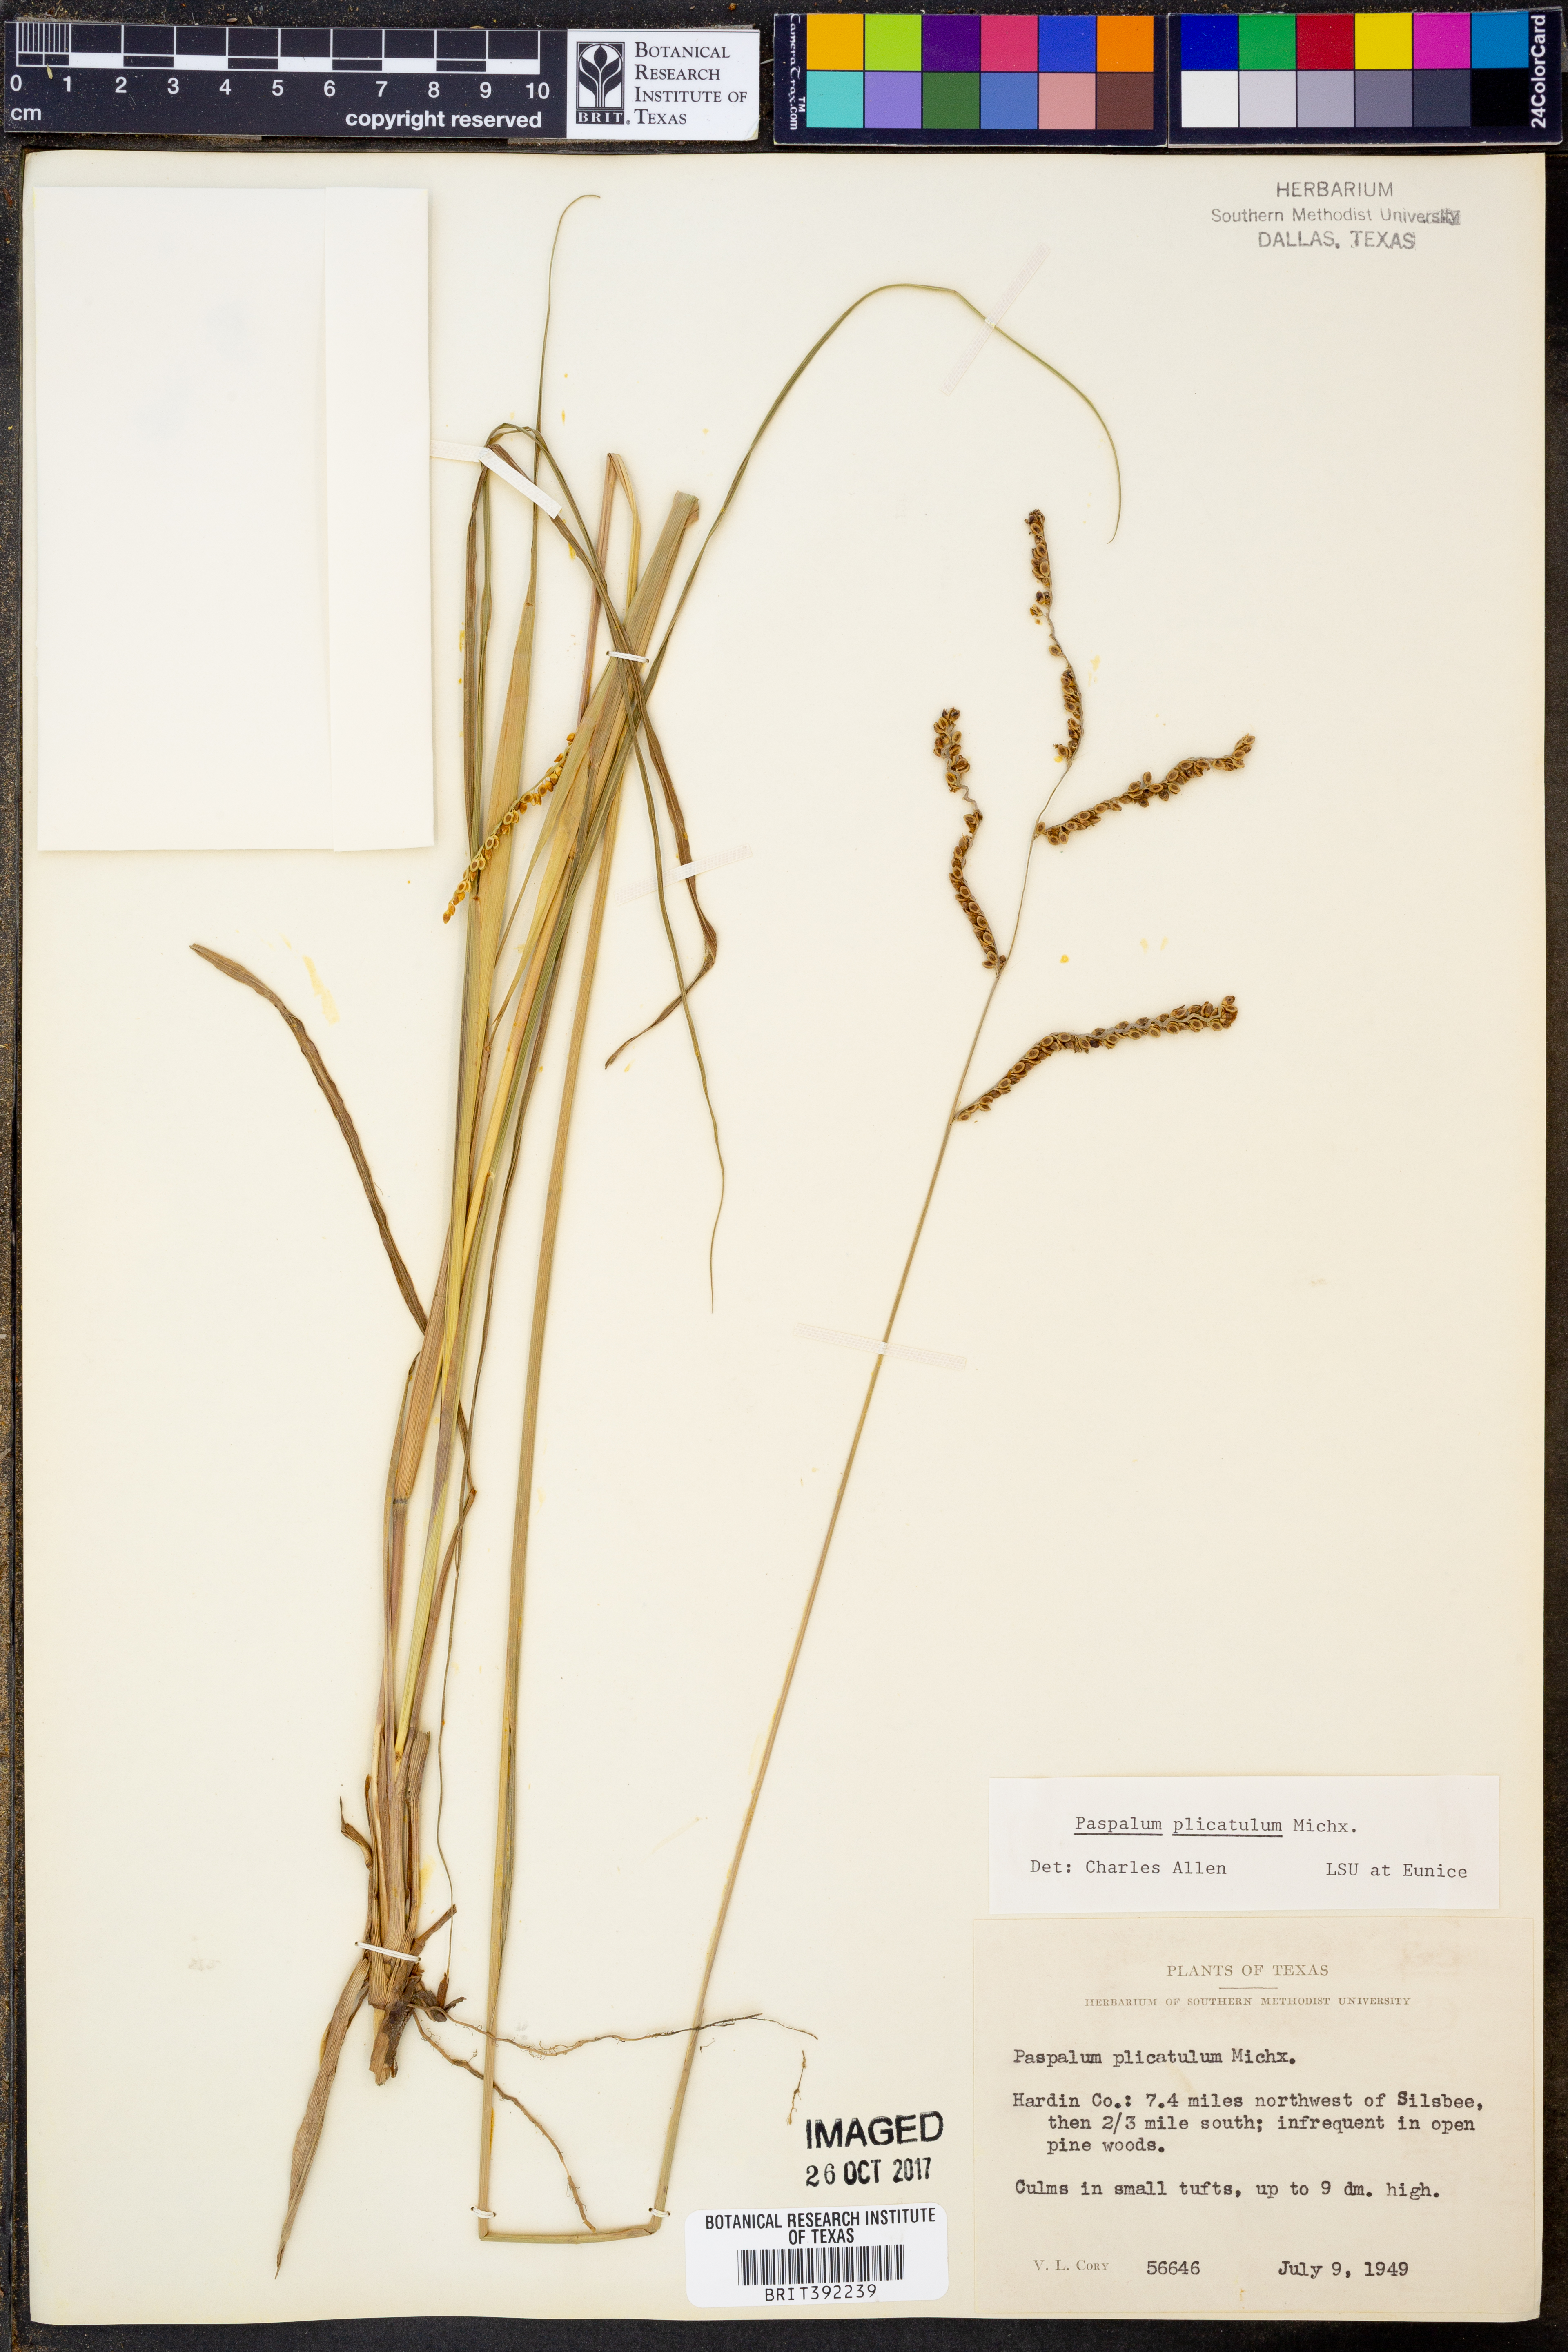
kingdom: Plantae
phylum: Tracheophyta
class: Liliopsida
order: Poales
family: Poaceae
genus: Paspalum
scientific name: Paspalum plicatulum
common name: Top paspalum
